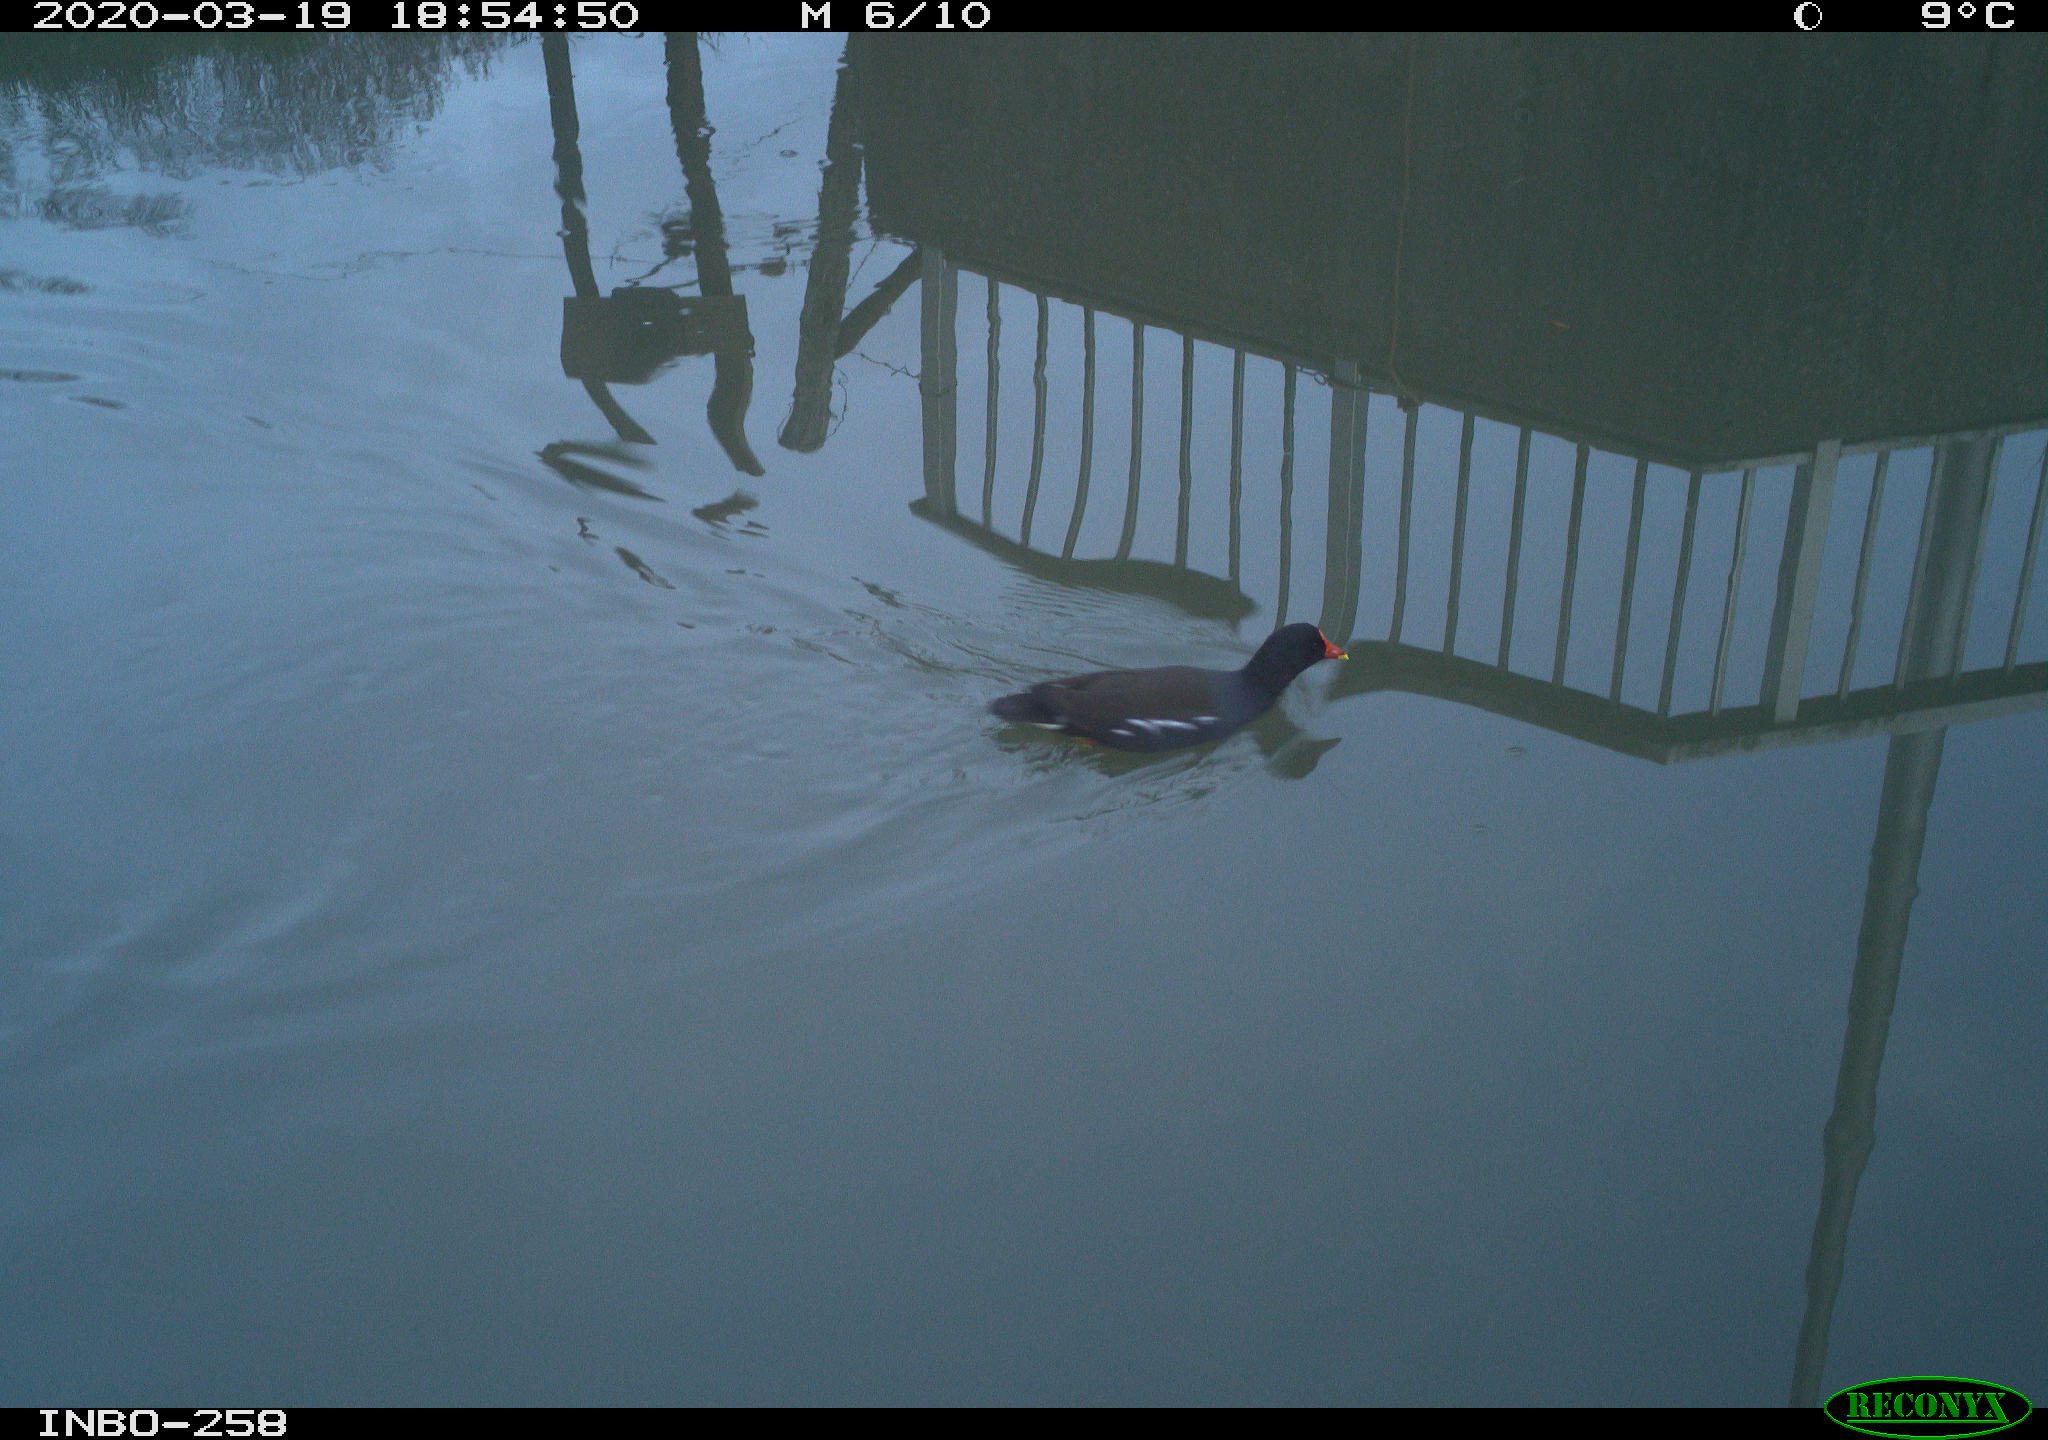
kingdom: Animalia
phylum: Chordata
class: Aves
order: Gruiformes
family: Rallidae
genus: Gallinula
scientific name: Gallinula chloropus
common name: Common moorhen
